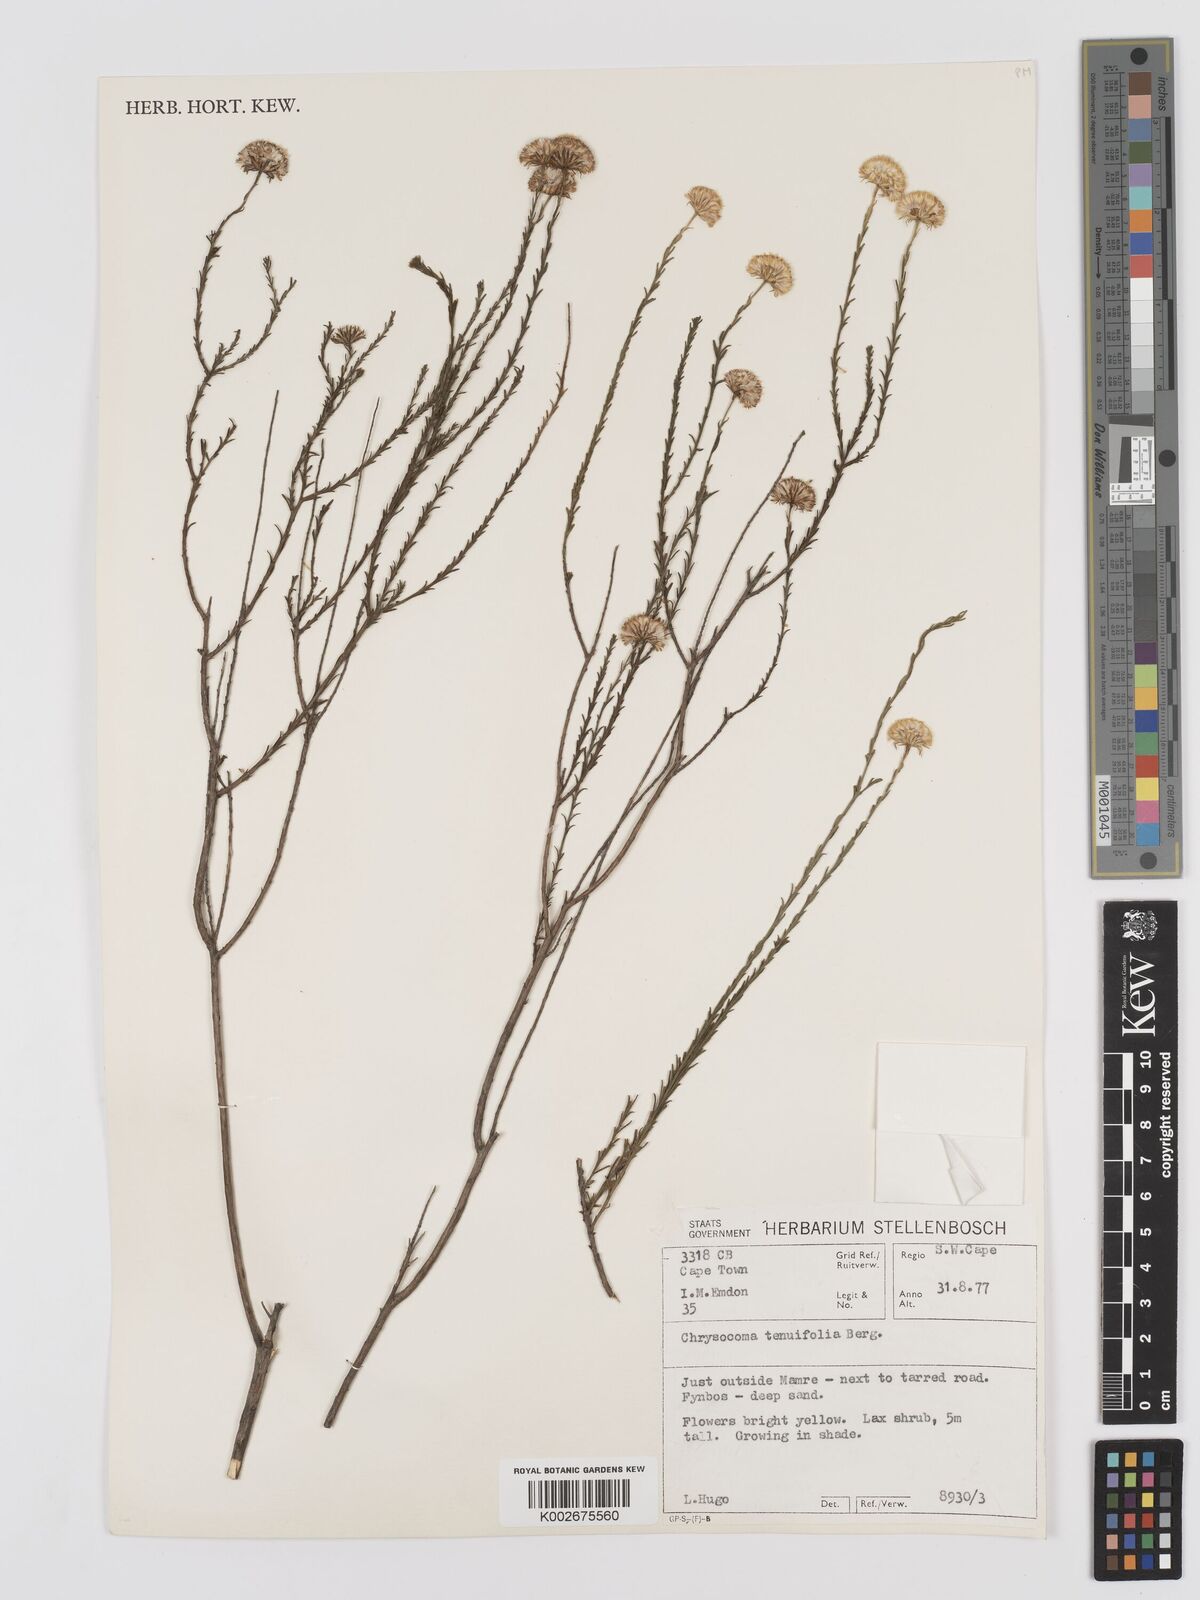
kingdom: Plantae
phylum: Tracheophyta
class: Magnoliopsida
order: Asterales
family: Asteraceae
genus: Chrysocoma
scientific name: Chrysocoma ciliata
